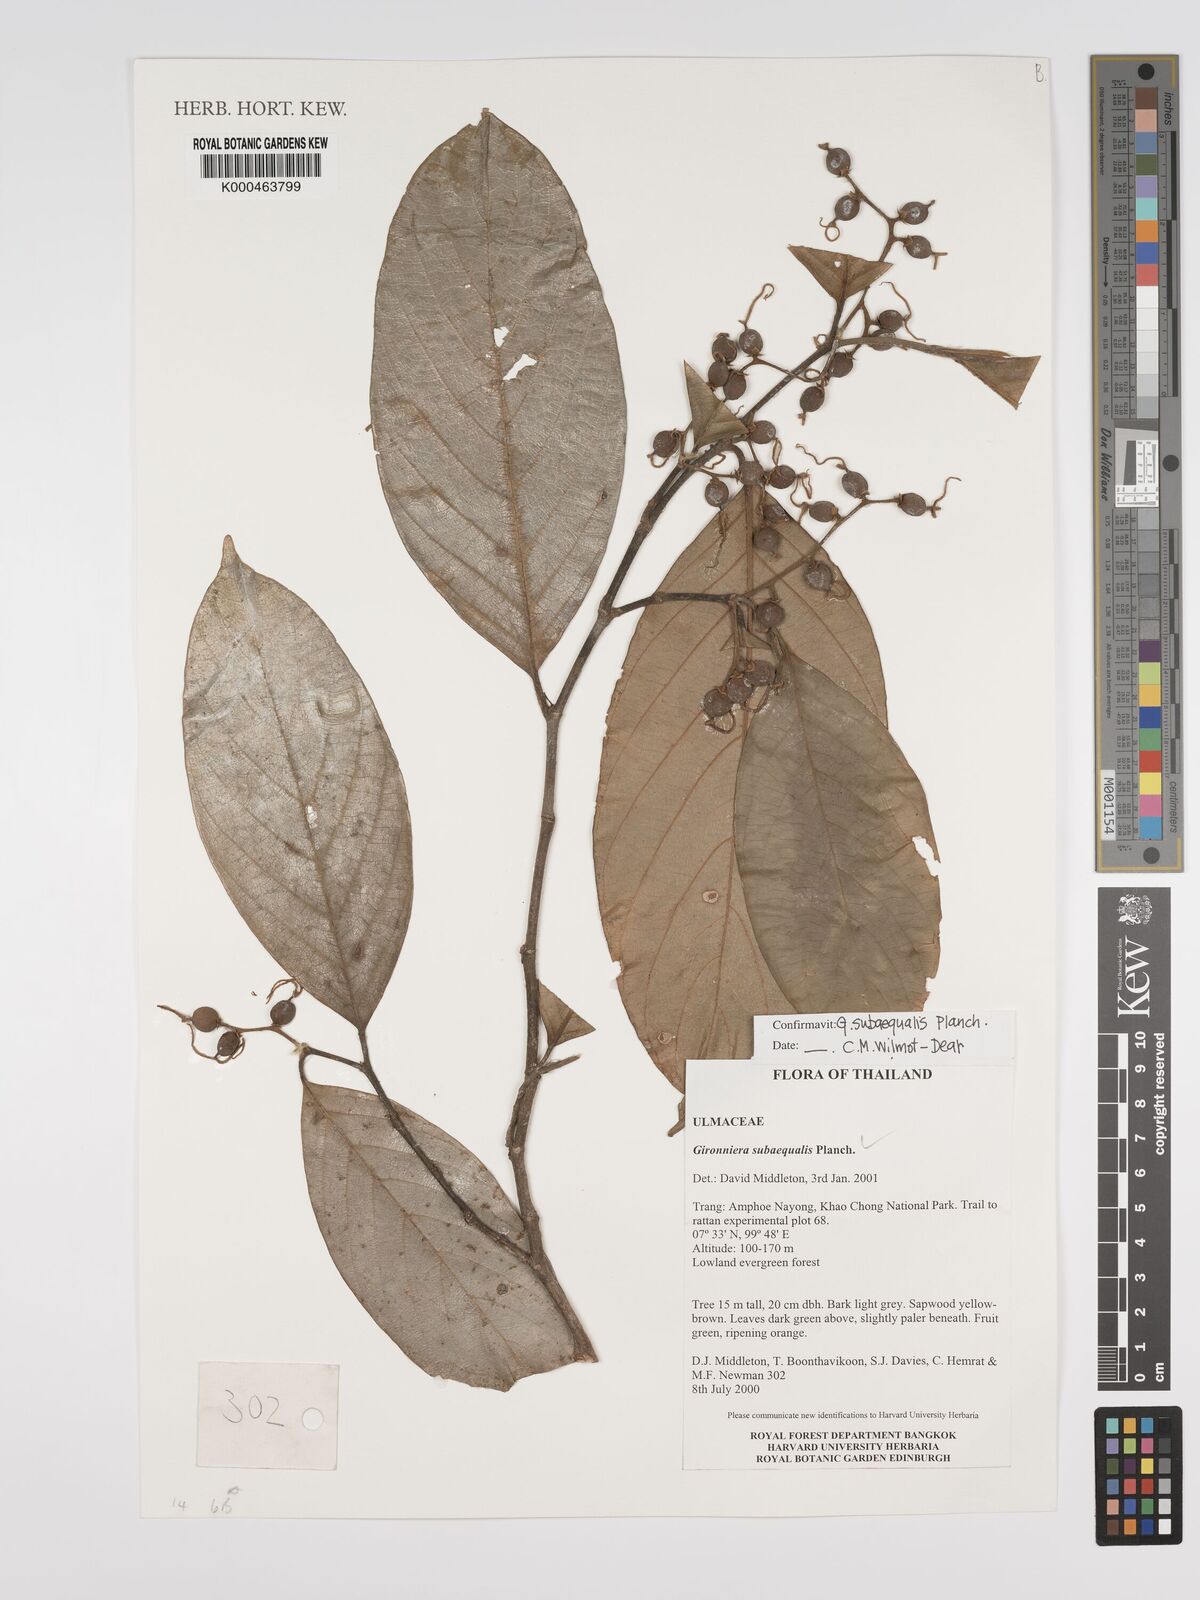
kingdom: Plantae
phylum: Tracheophyta
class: Magnoliopsida
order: Rosales
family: Cannabaceae
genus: Gironniera
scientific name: Gironniera subaequalis
